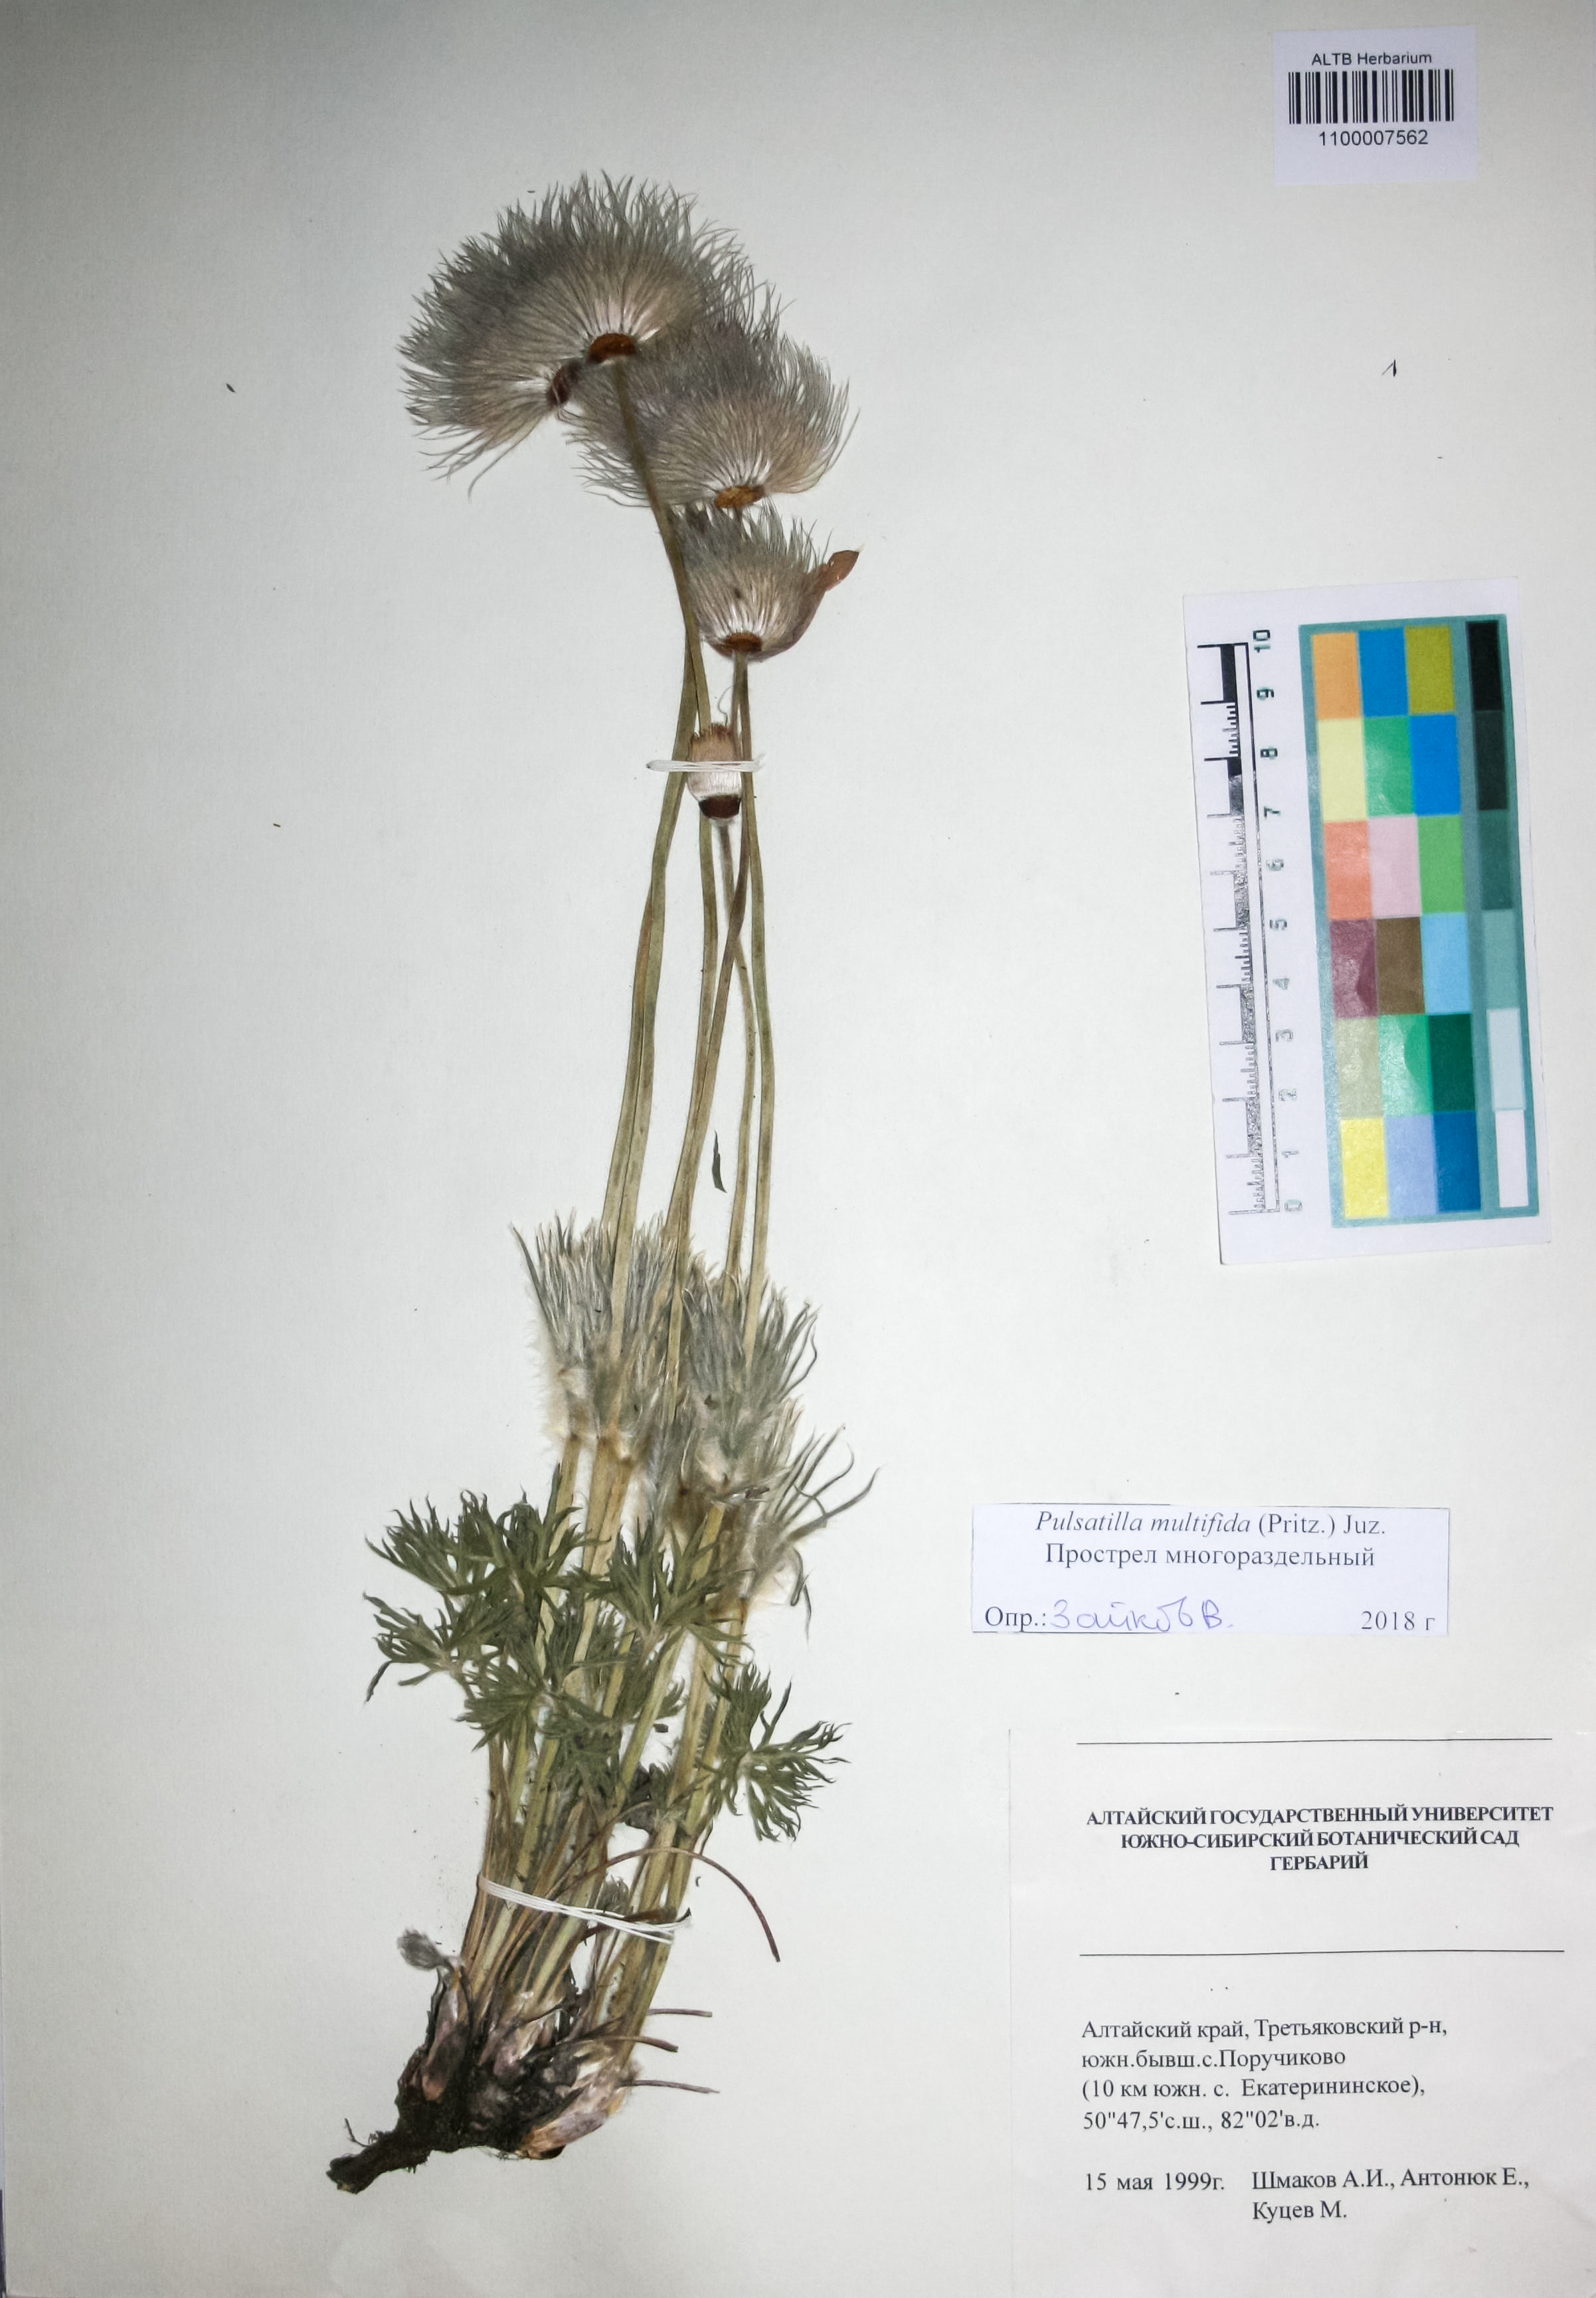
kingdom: Plantae
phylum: Tracheophyta
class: Magnoliopsida
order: Ranunculales
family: Ranunculaceae
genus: Pulsatilla
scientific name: Pulsatilla patens
